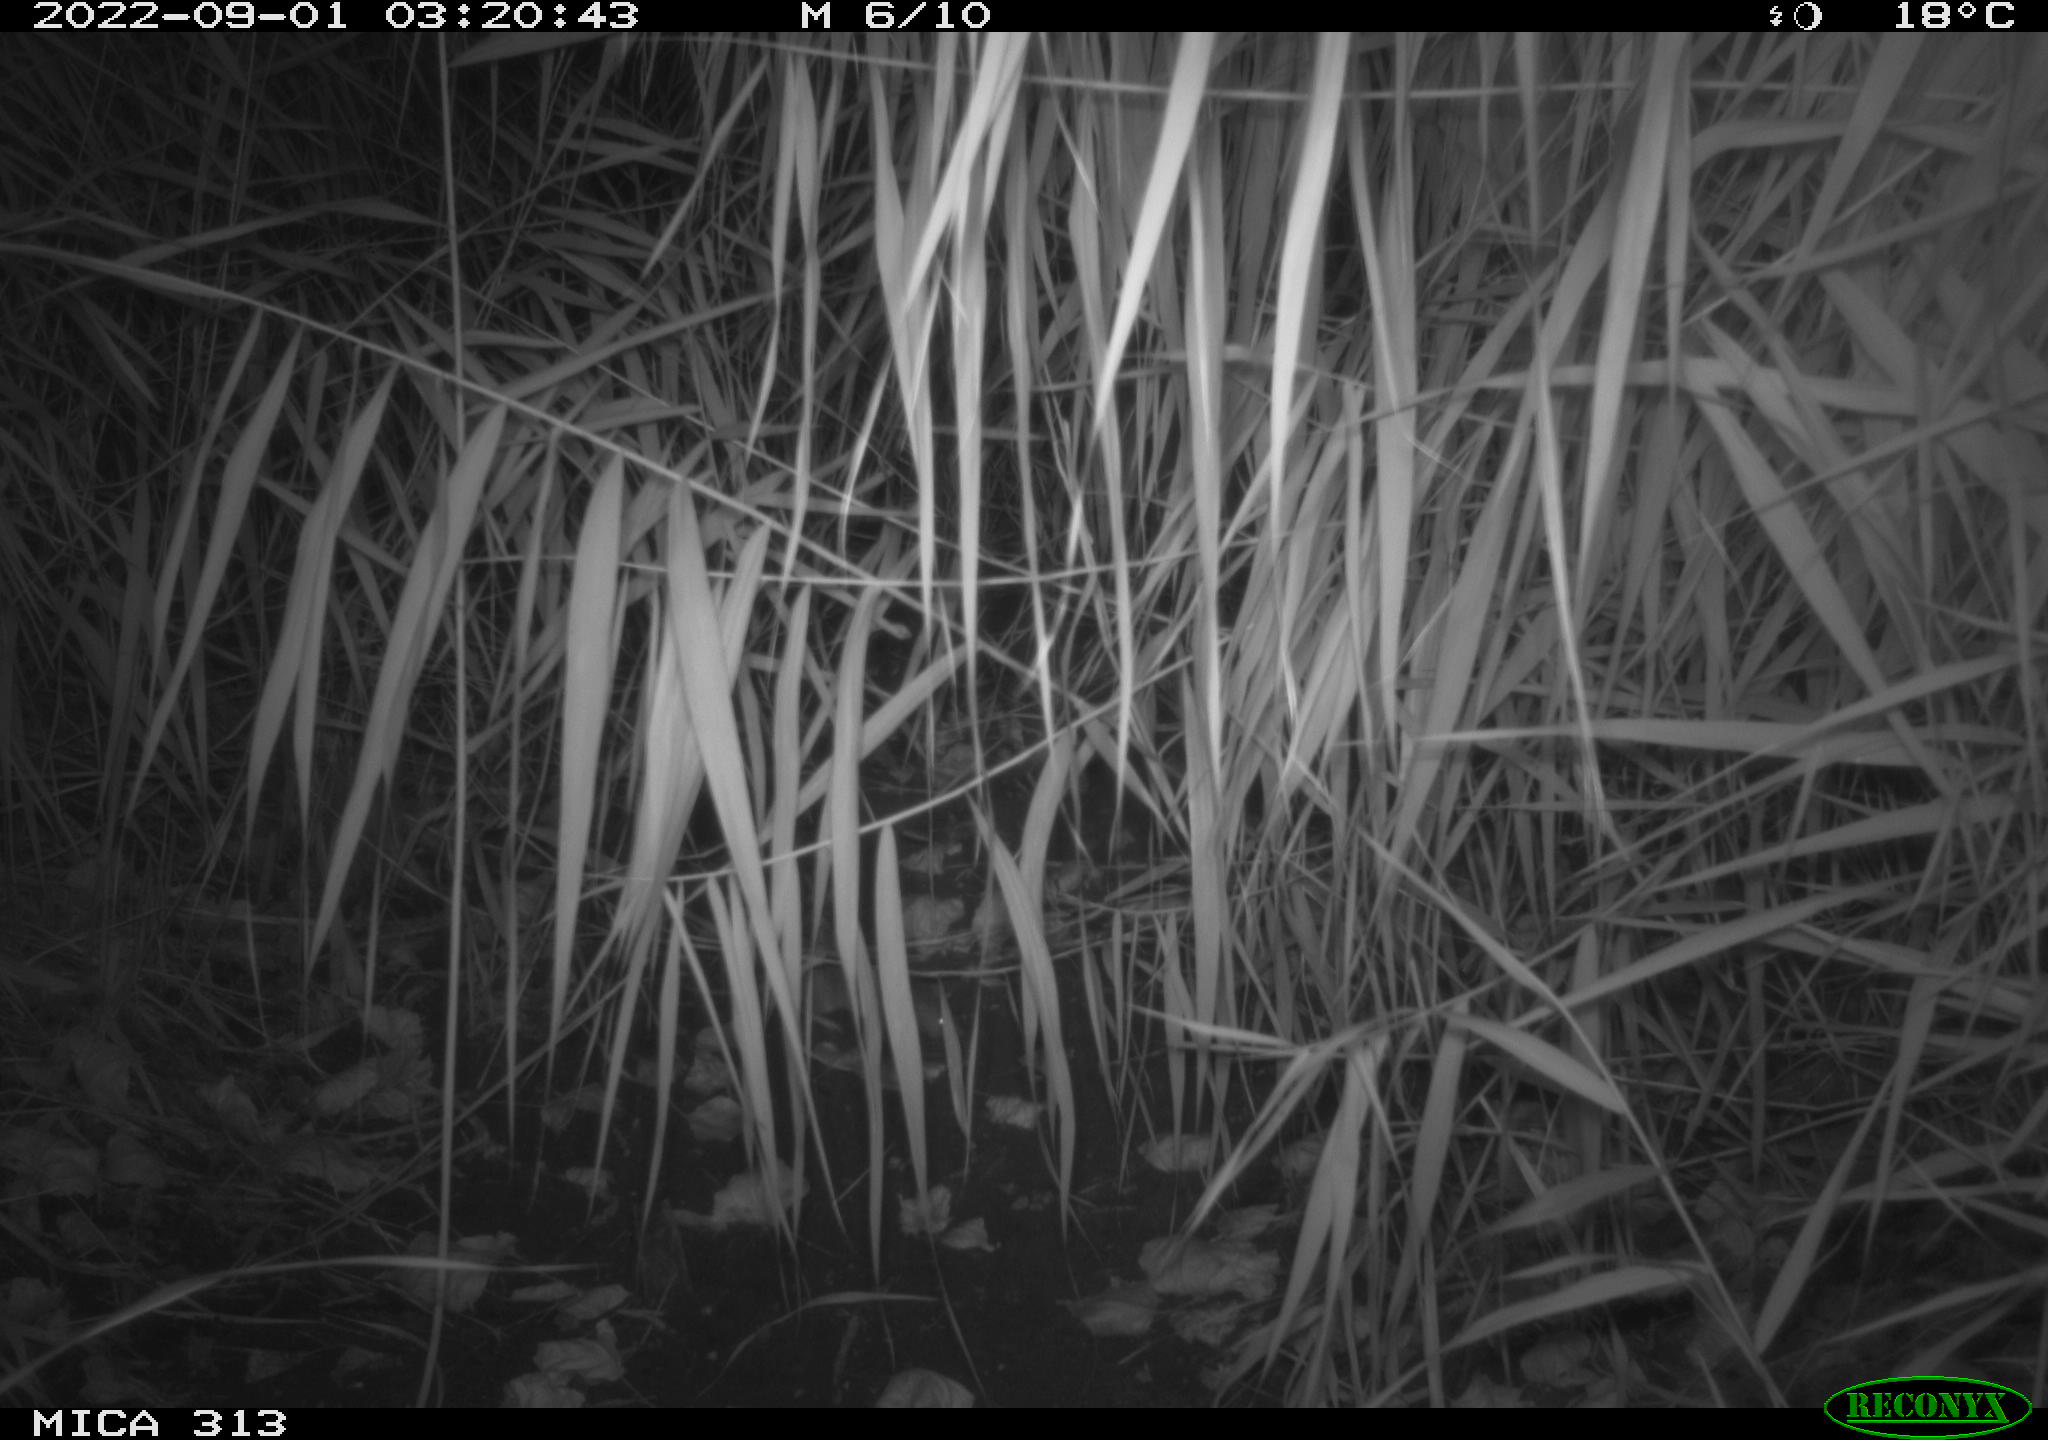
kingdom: Animalia
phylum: Chordata
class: Mammalia
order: Rodentia
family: Muridae
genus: Rattus
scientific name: Rattus norvegicus
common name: Brown rat
